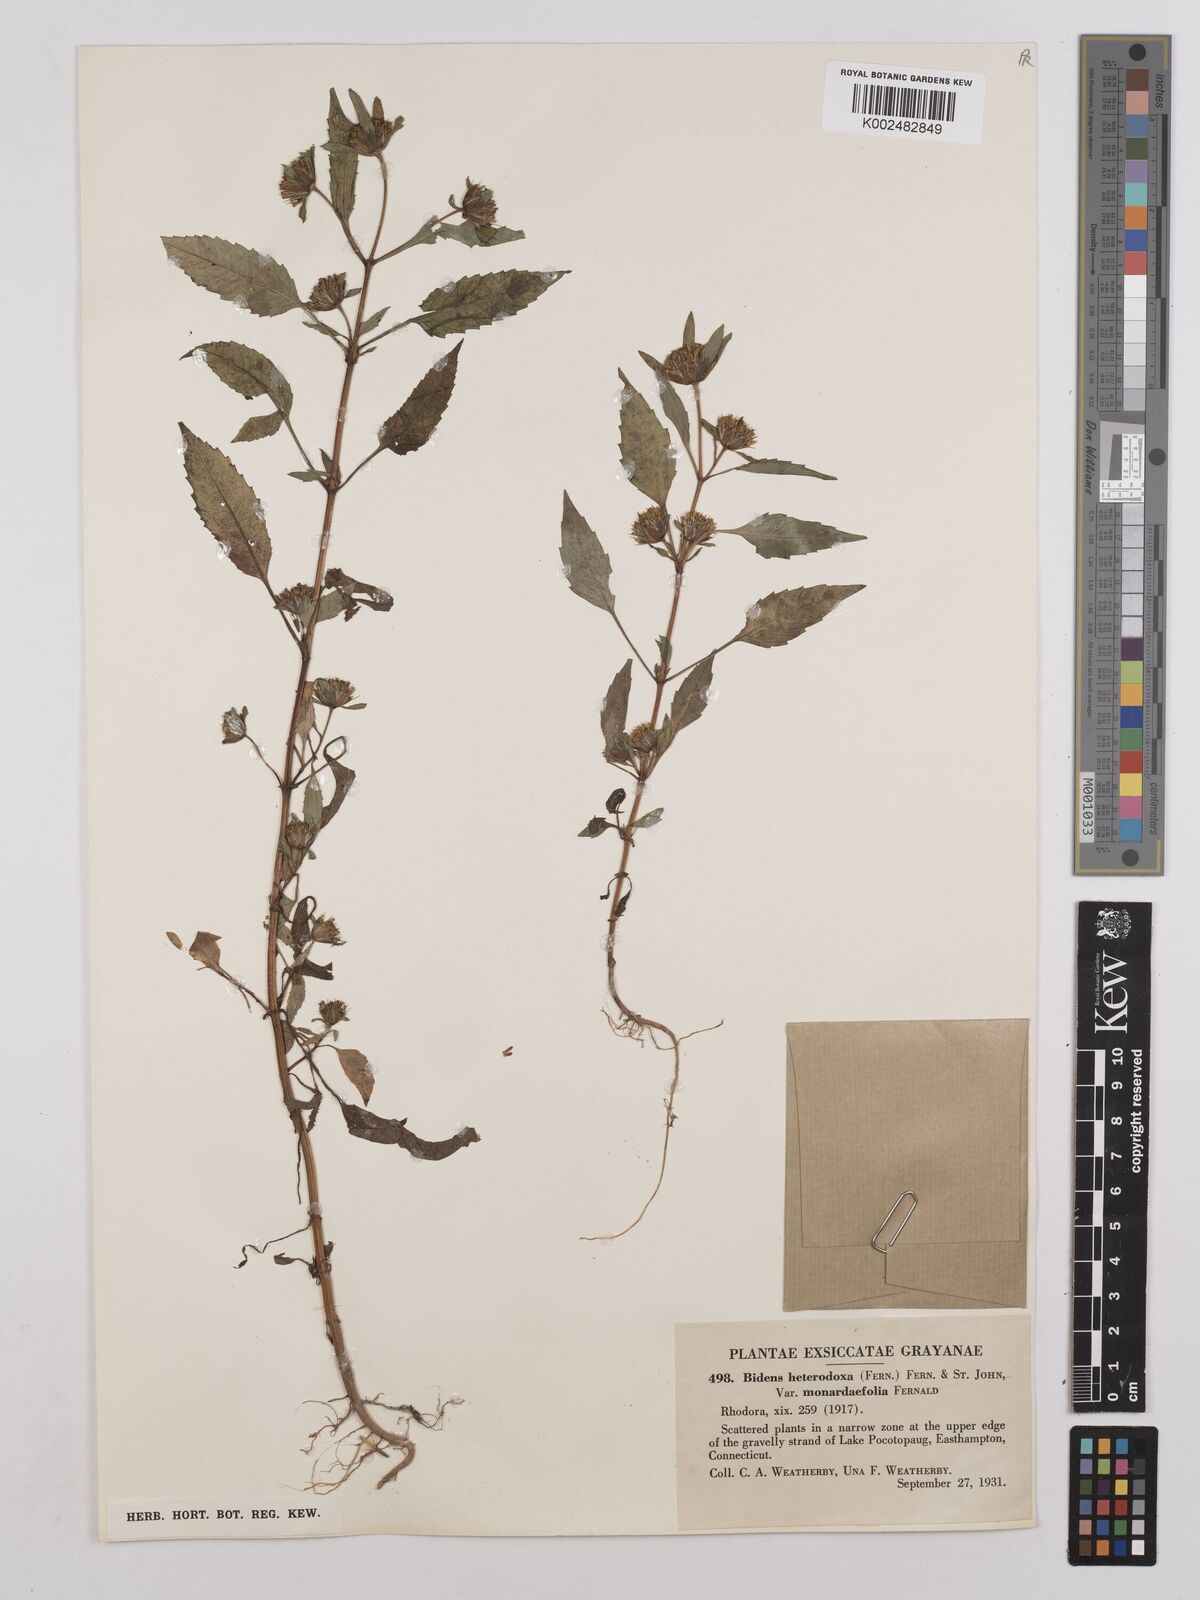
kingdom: Plantae
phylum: Tracheophyta
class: Magnoliopsida
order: Asterales
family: Asteraceae
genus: Bidens
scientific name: Bidens heterodoxa
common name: Connecticut beggarticks
